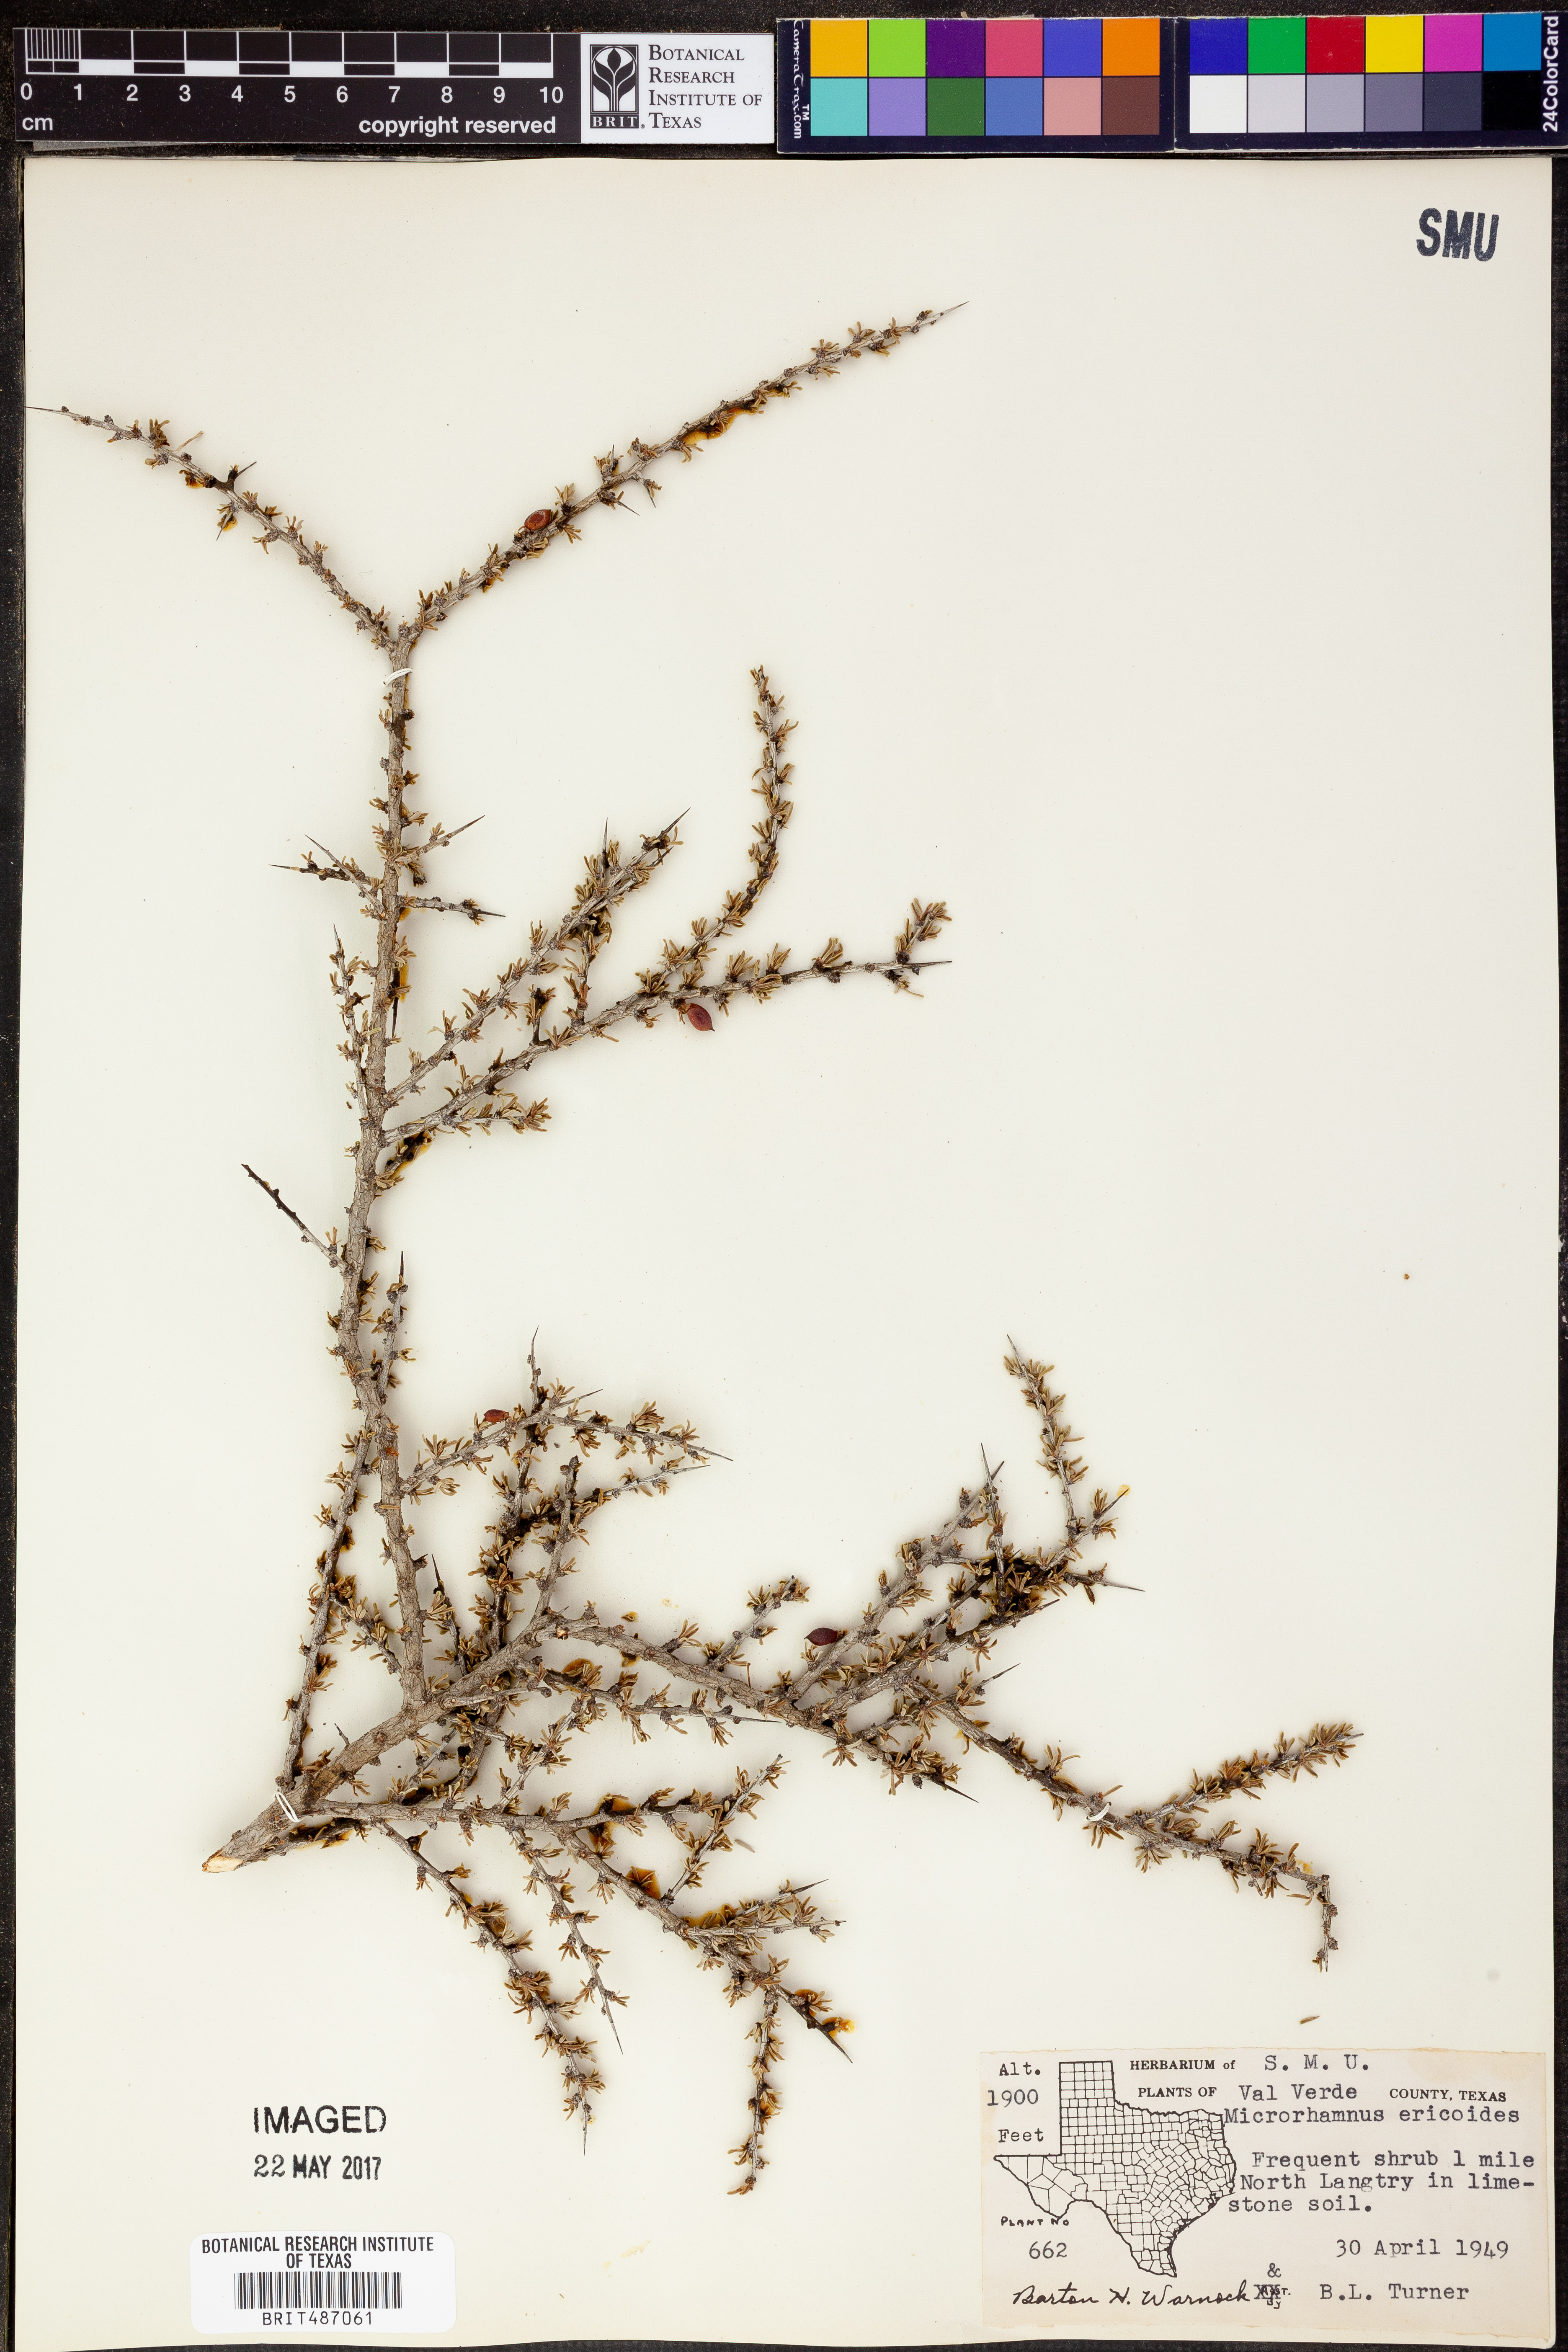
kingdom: Plantae
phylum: Tracheophyta
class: Magnoliopsida
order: Rosales
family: Rhamnaceae
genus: Condalia
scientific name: Condalia ericoides
